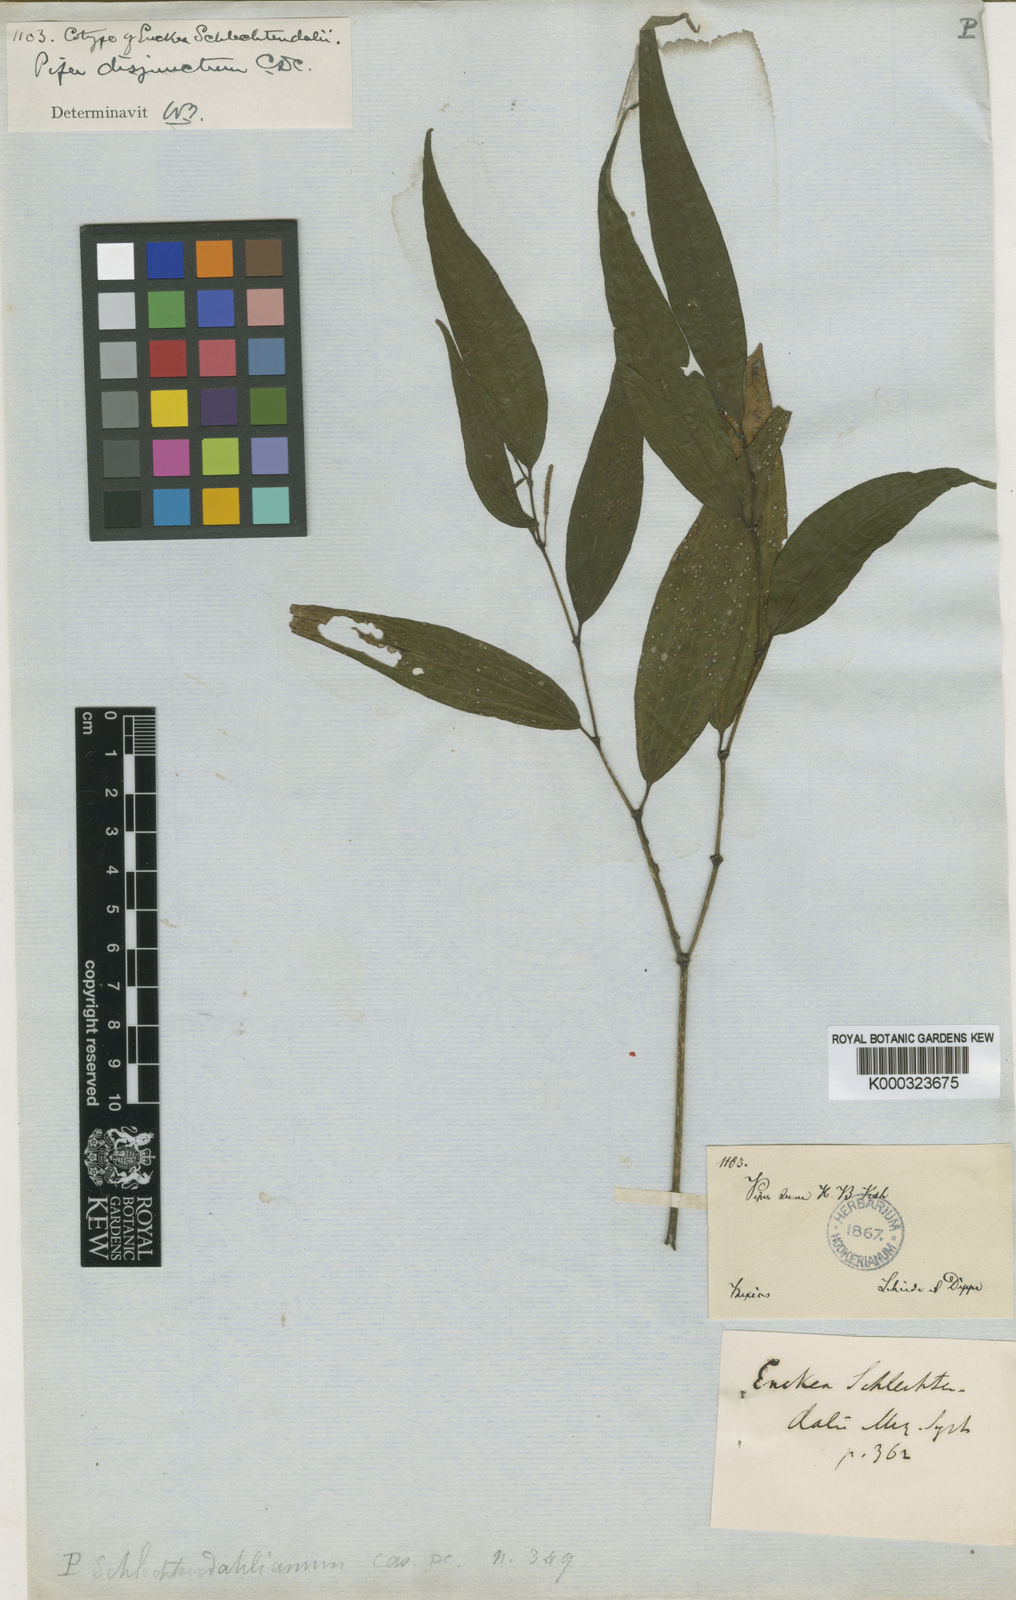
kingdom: Plantae
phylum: Tracheophyta
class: Magnoliopsida
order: Piperales
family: Piperaceae
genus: Piper
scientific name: Piper schlechtendalianum
